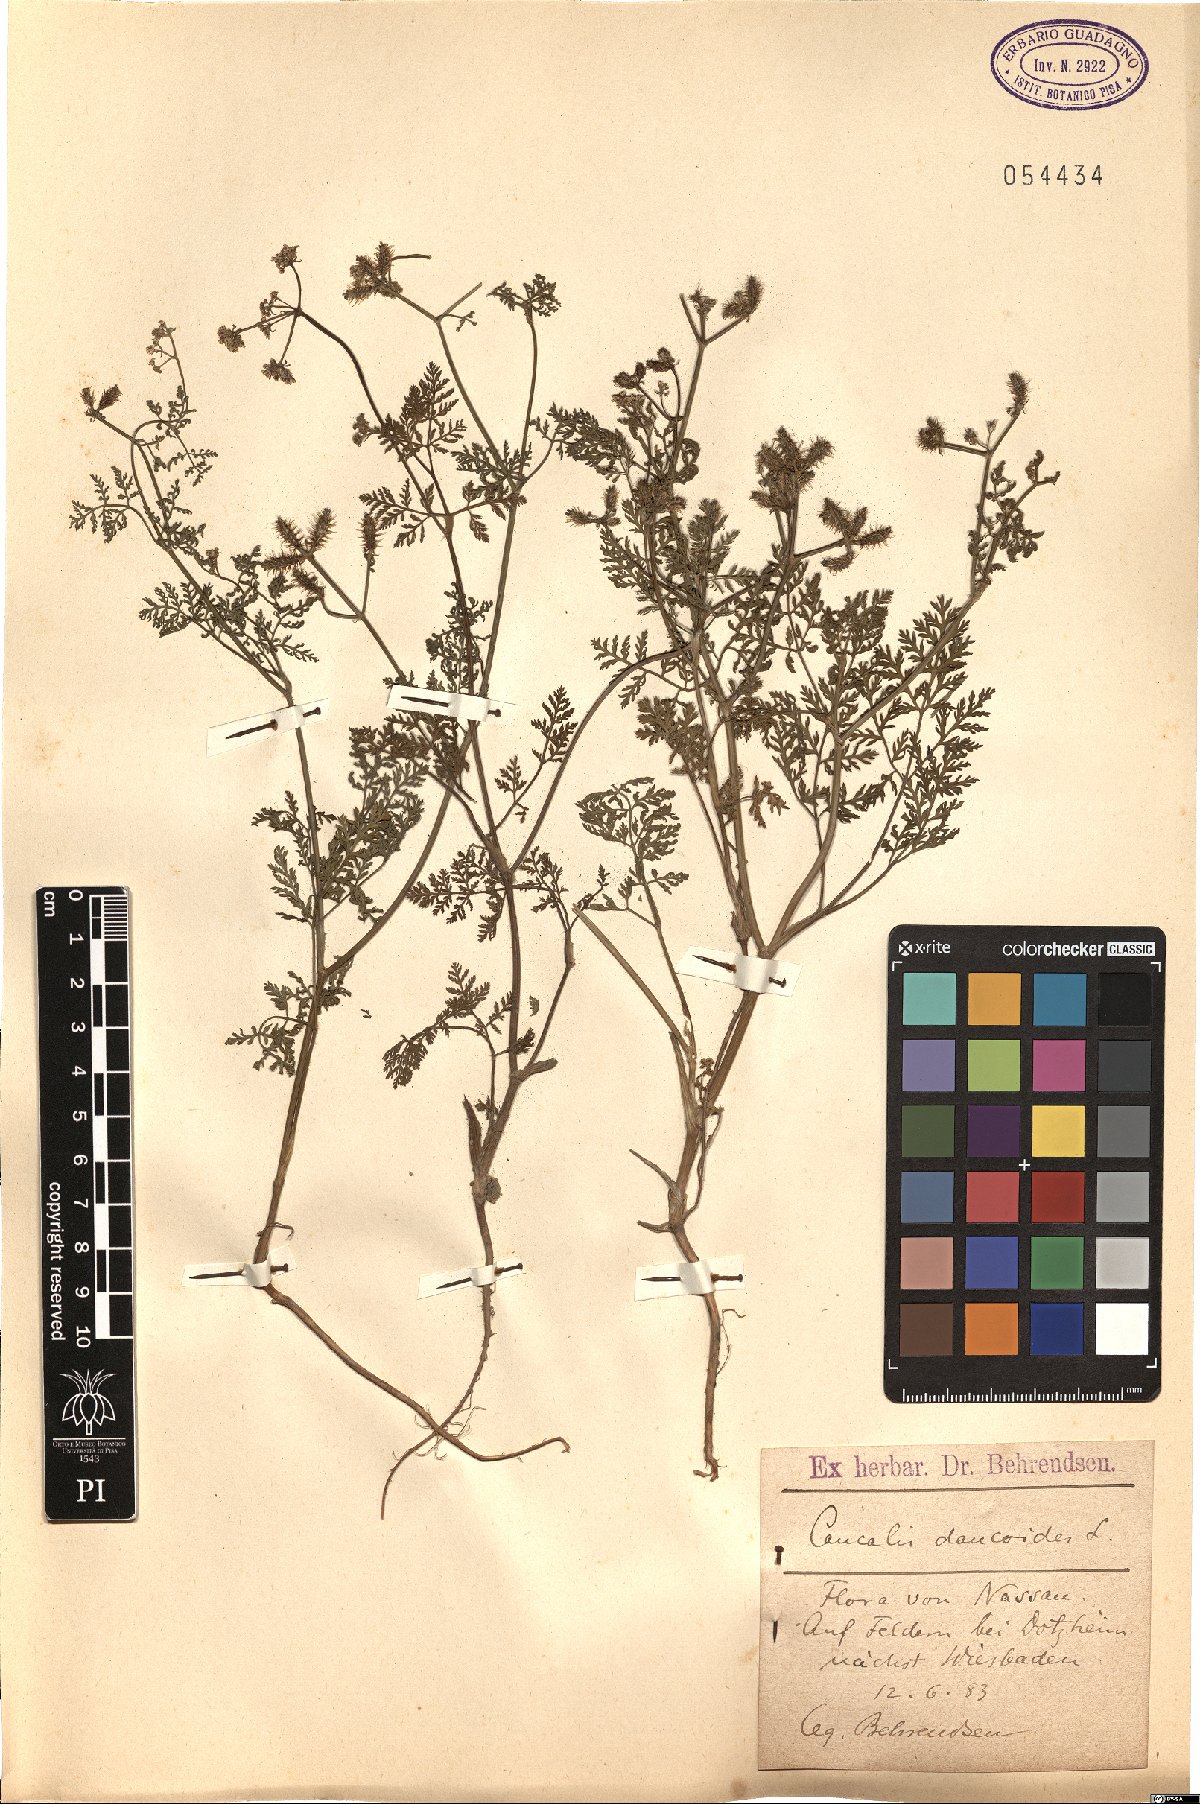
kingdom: Plantae
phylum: Tracheophyta
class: Magnoliopsida
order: Apiales
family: Apiaceae
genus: Orlaya
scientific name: Orlaya daucoides
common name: Flat-fruit orlaya
